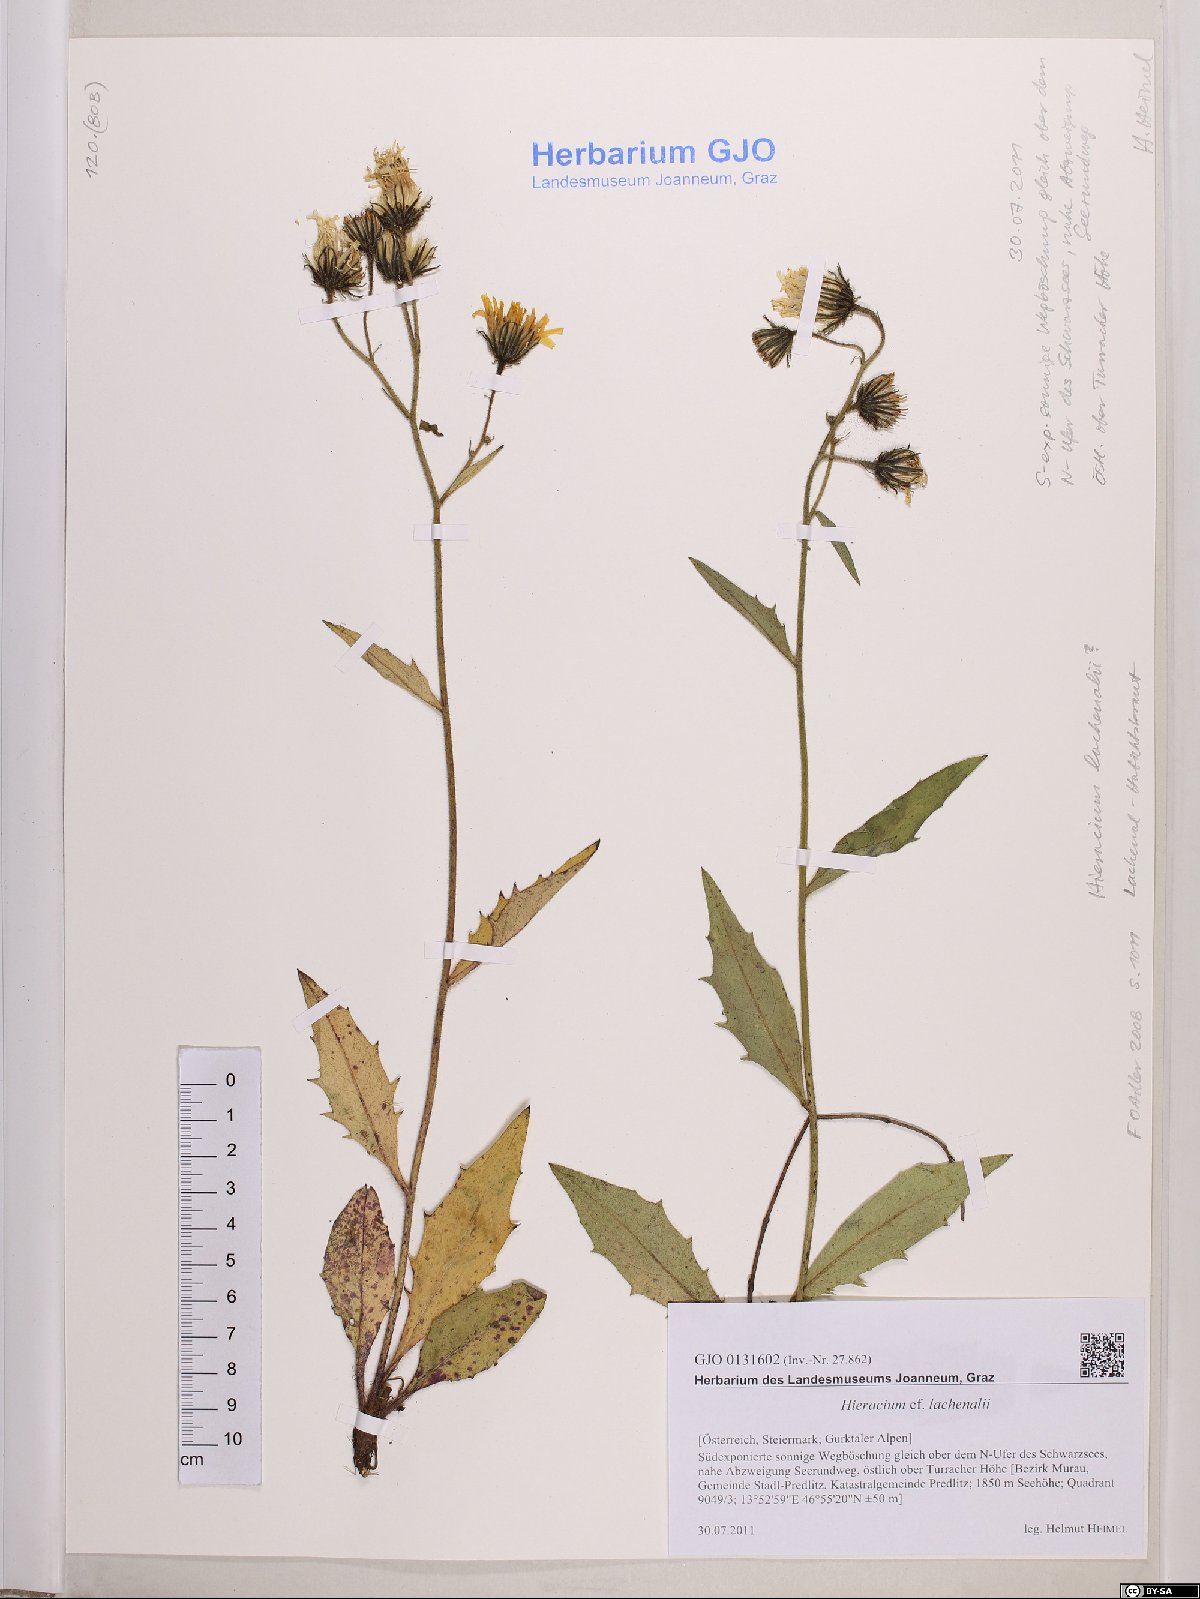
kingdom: Plantae
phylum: Tracheophyta
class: Magnoliopsida
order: Asterales
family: Asteraceae
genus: Hieracium
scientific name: Hieracium lachenalii
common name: Common hawkweed
